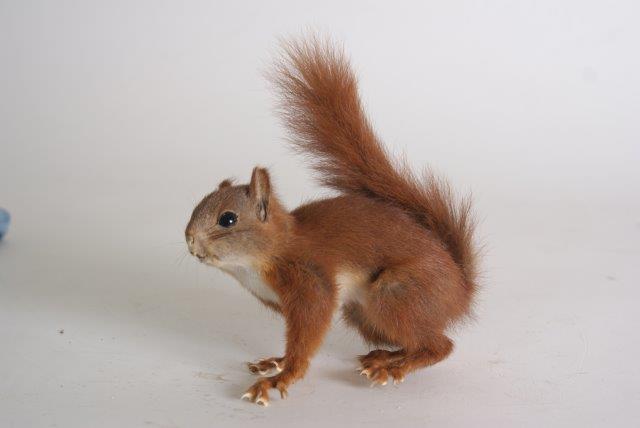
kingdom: Animalia
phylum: Chordata
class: Mammalia
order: Rodentia
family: Sciuridae
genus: Sciurus
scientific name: Sciurus vulgaris
